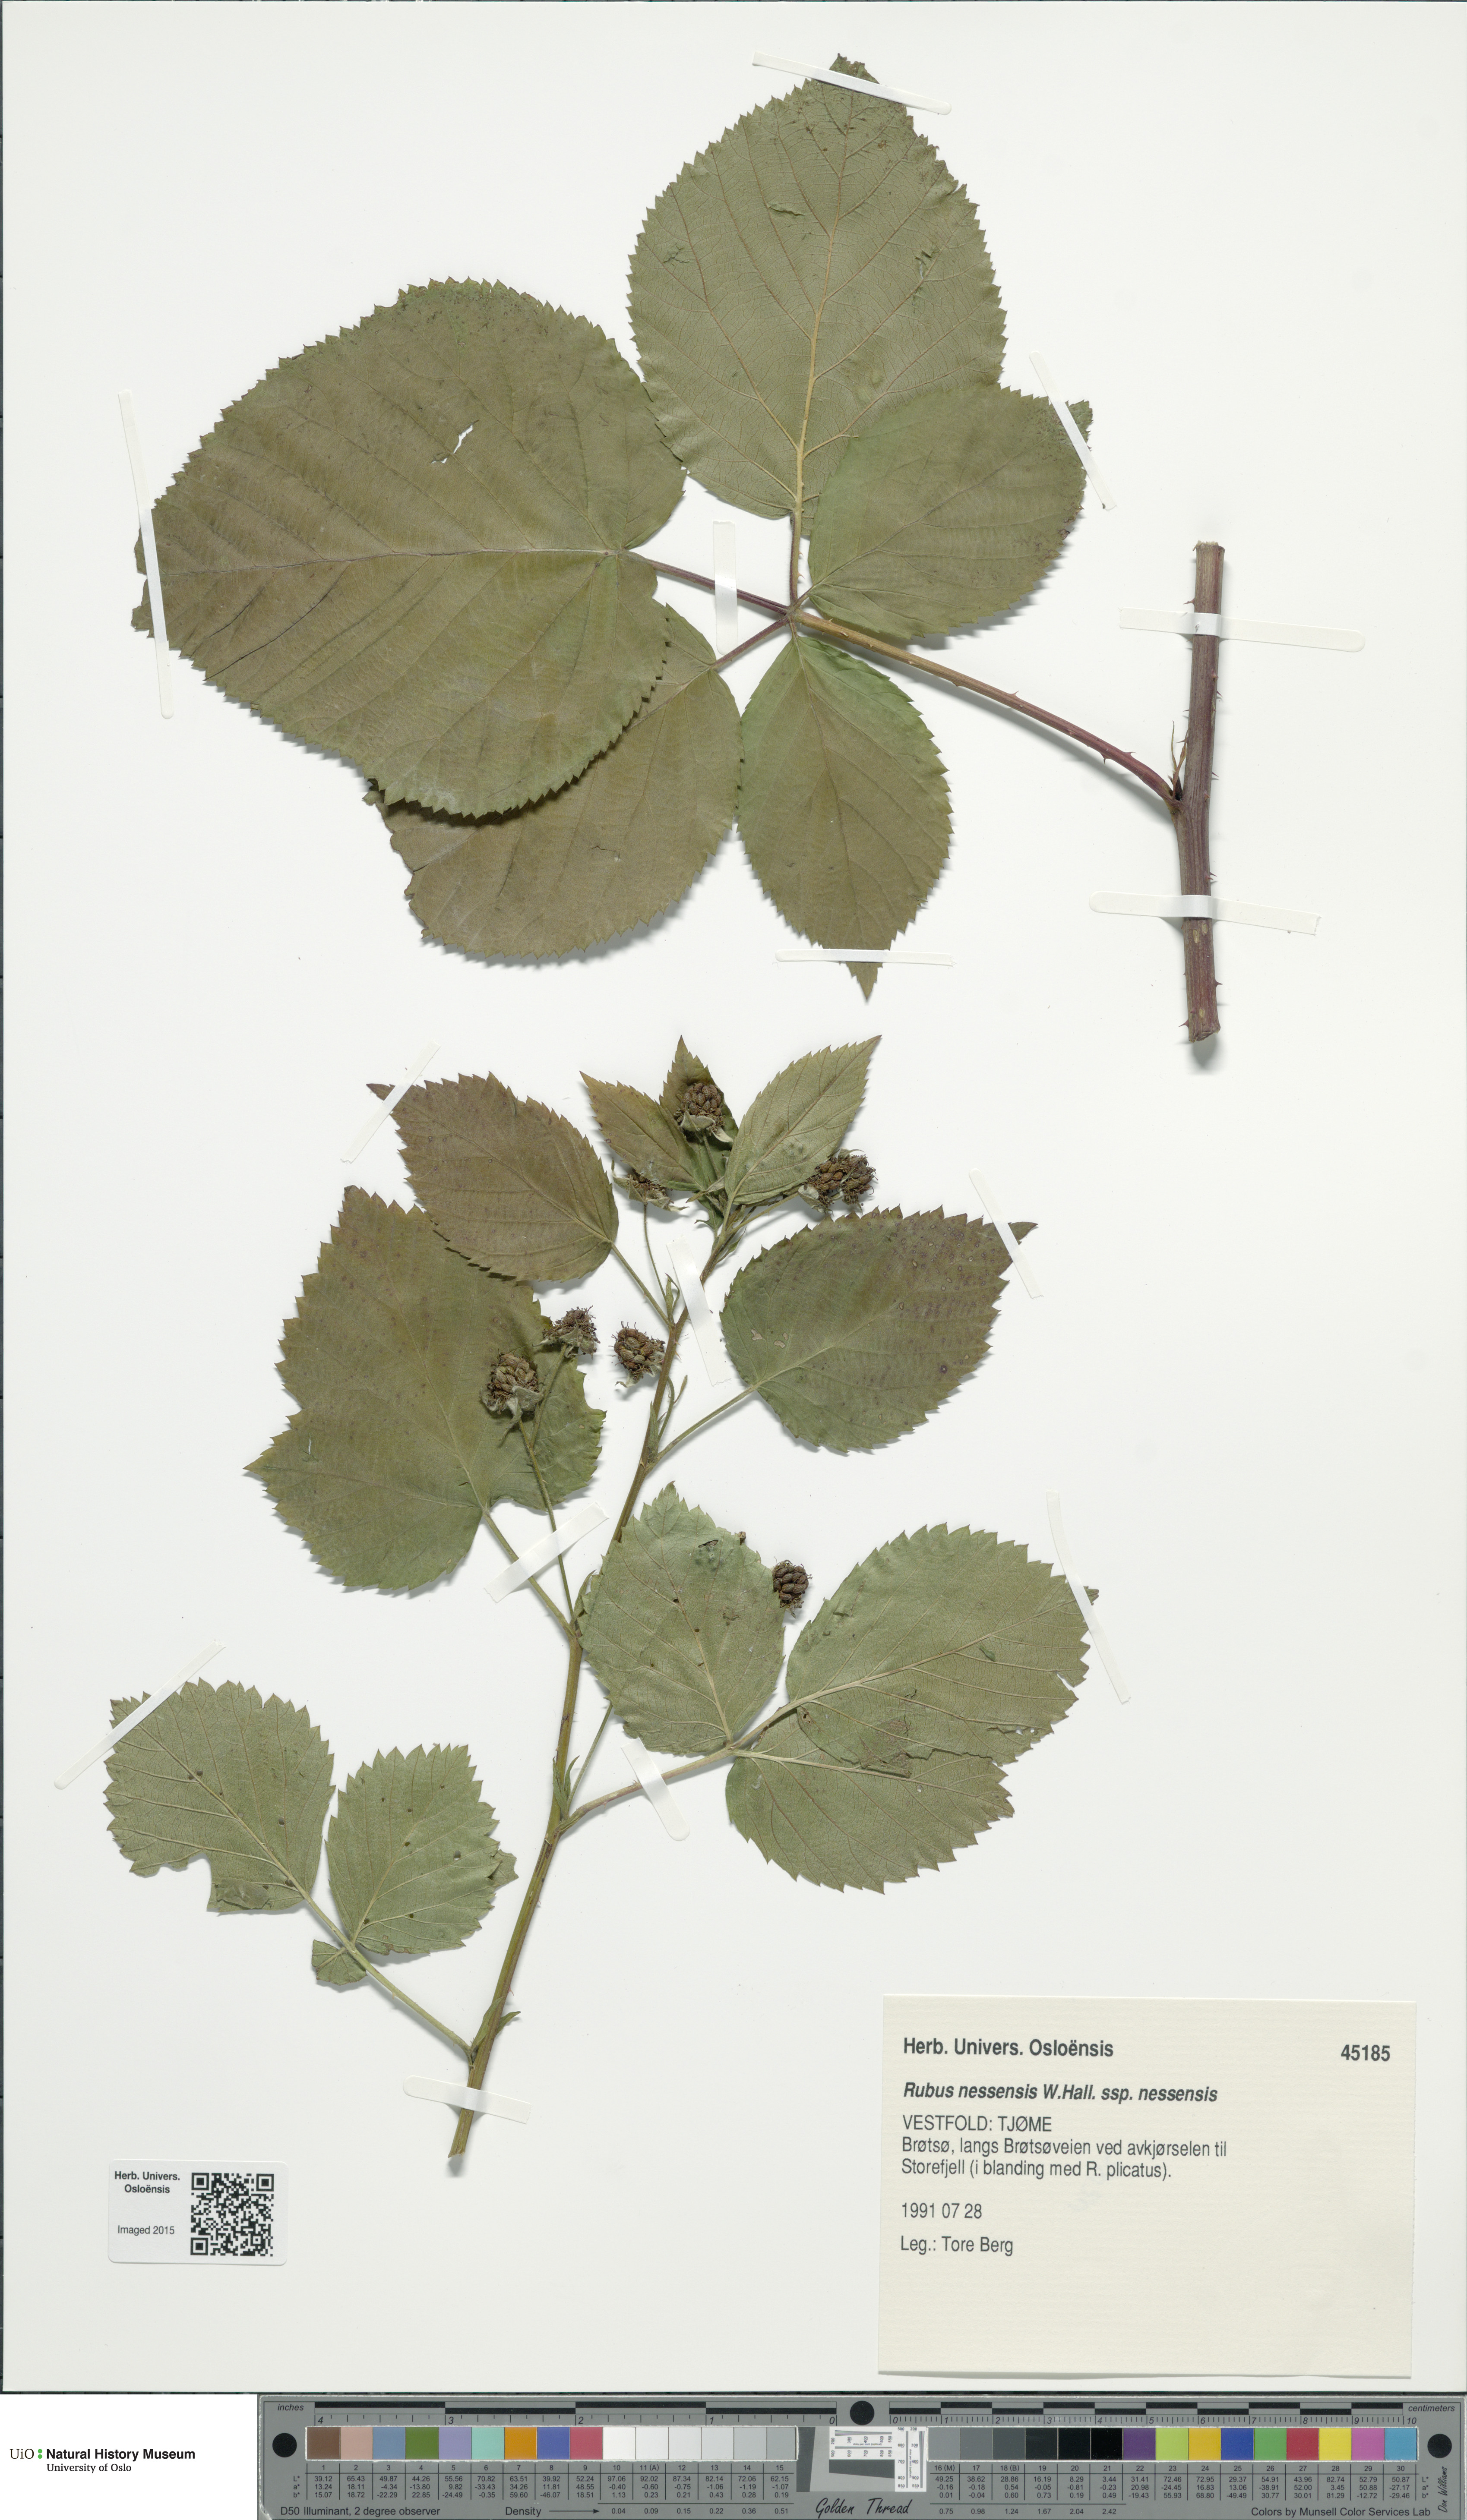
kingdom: Plantae
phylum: Tracheophyta
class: Magnoliopsida
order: Rosales
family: Rosaceae
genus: Rubus
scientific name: Rubus polonicus
